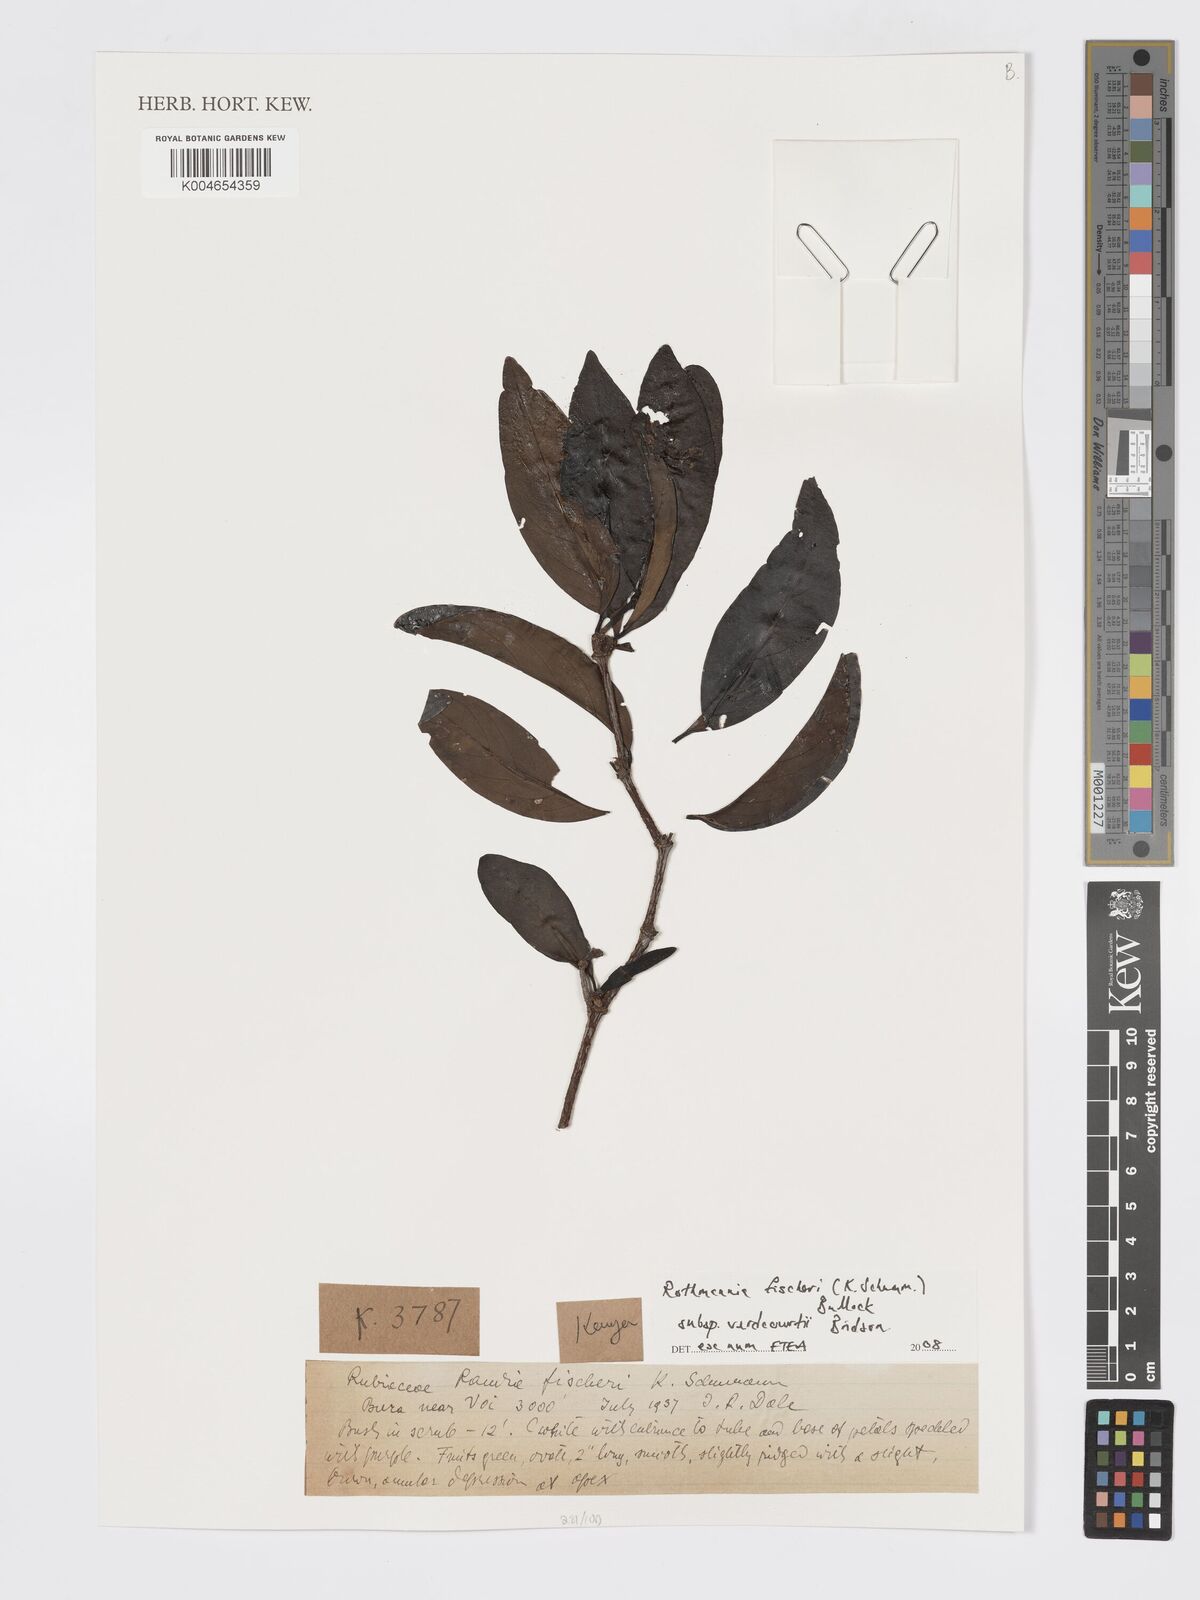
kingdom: Plantae
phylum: Tracheophyta
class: Magnoliopsida
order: Gentianales
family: Rubiaceae
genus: Rothmannia
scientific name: Rothmannia fischeri
